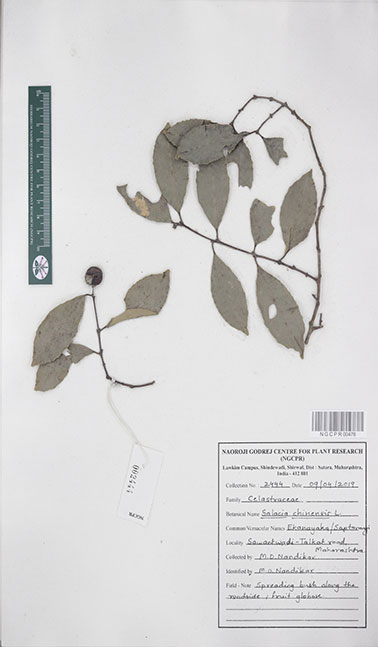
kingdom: Plantae
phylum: Tracheophyta
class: Magnoliopsida
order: Celastrales
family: Celastraceae
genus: Salacia
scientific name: Salacia chinensis
